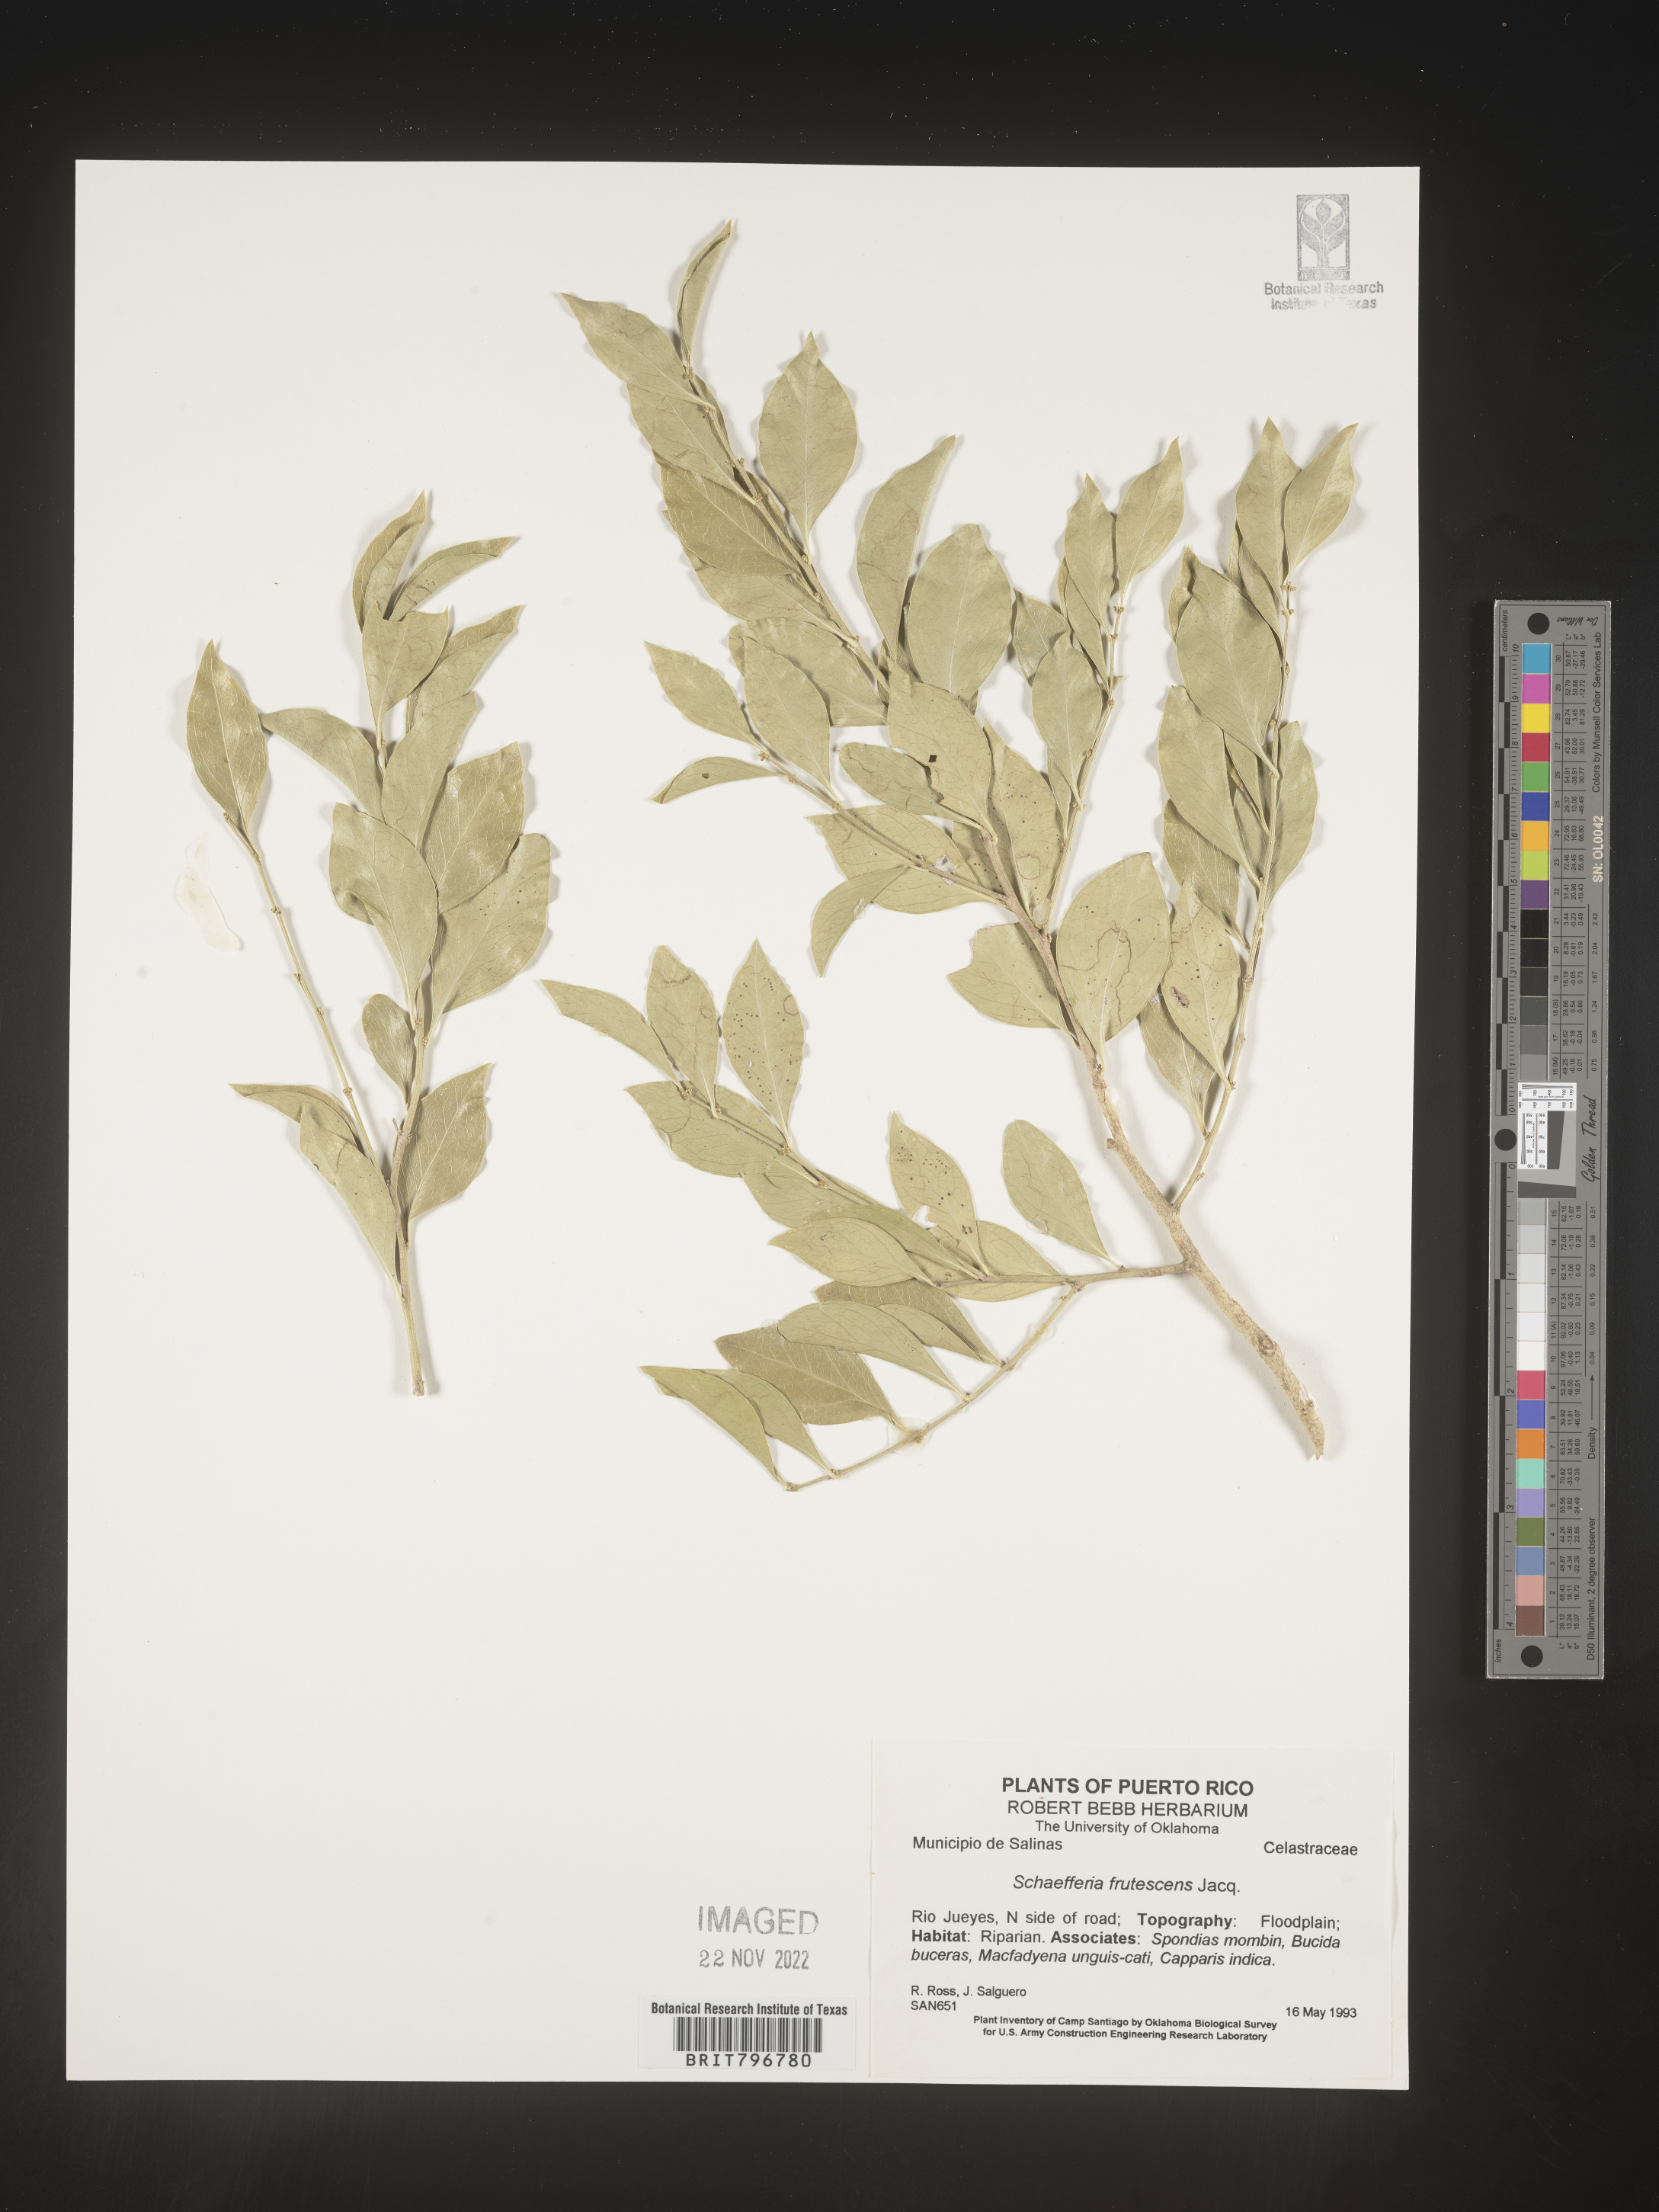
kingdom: Plantae
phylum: Tracheophyta
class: Magnoliopsida
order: Celastrales
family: Celastraceae
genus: Schaefferia
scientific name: Schaefferia
